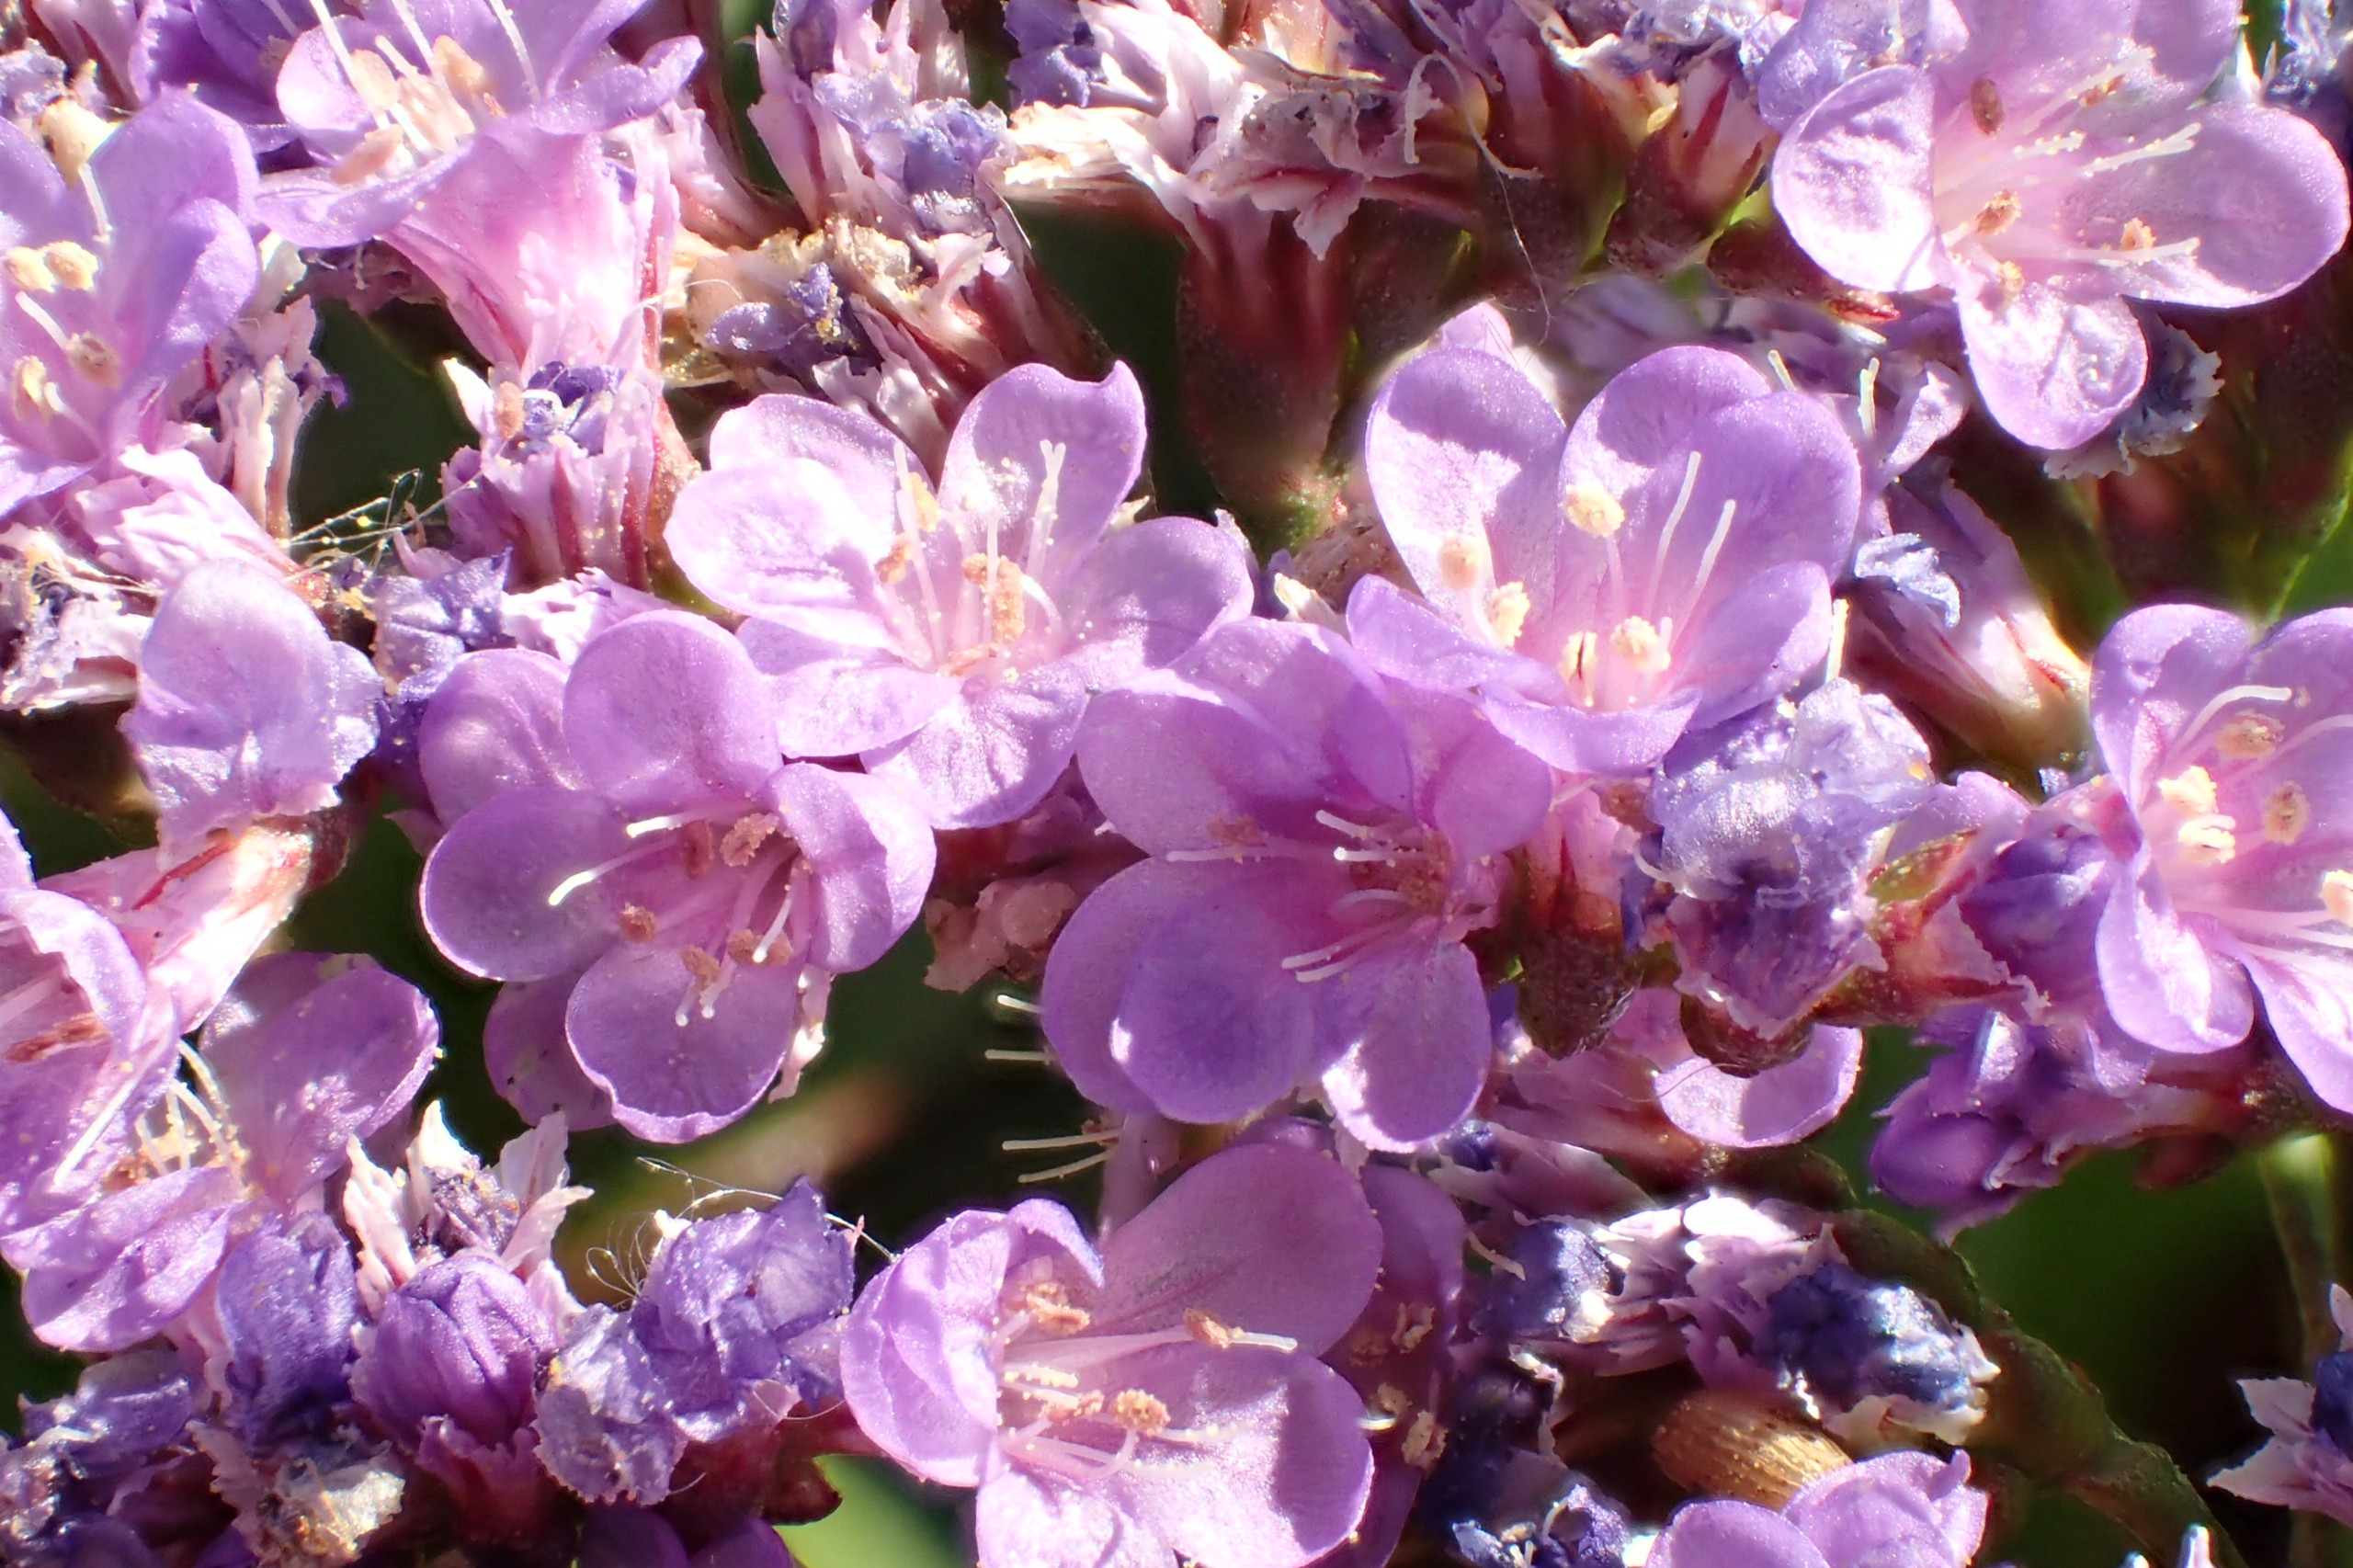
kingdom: Plantae
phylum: Tracheophyta
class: Magnoliopsida
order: Caryophyllales
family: Plumbaginaceae
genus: Limonium
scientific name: Limonium vulgare
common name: Tætblomstret hindebæger
